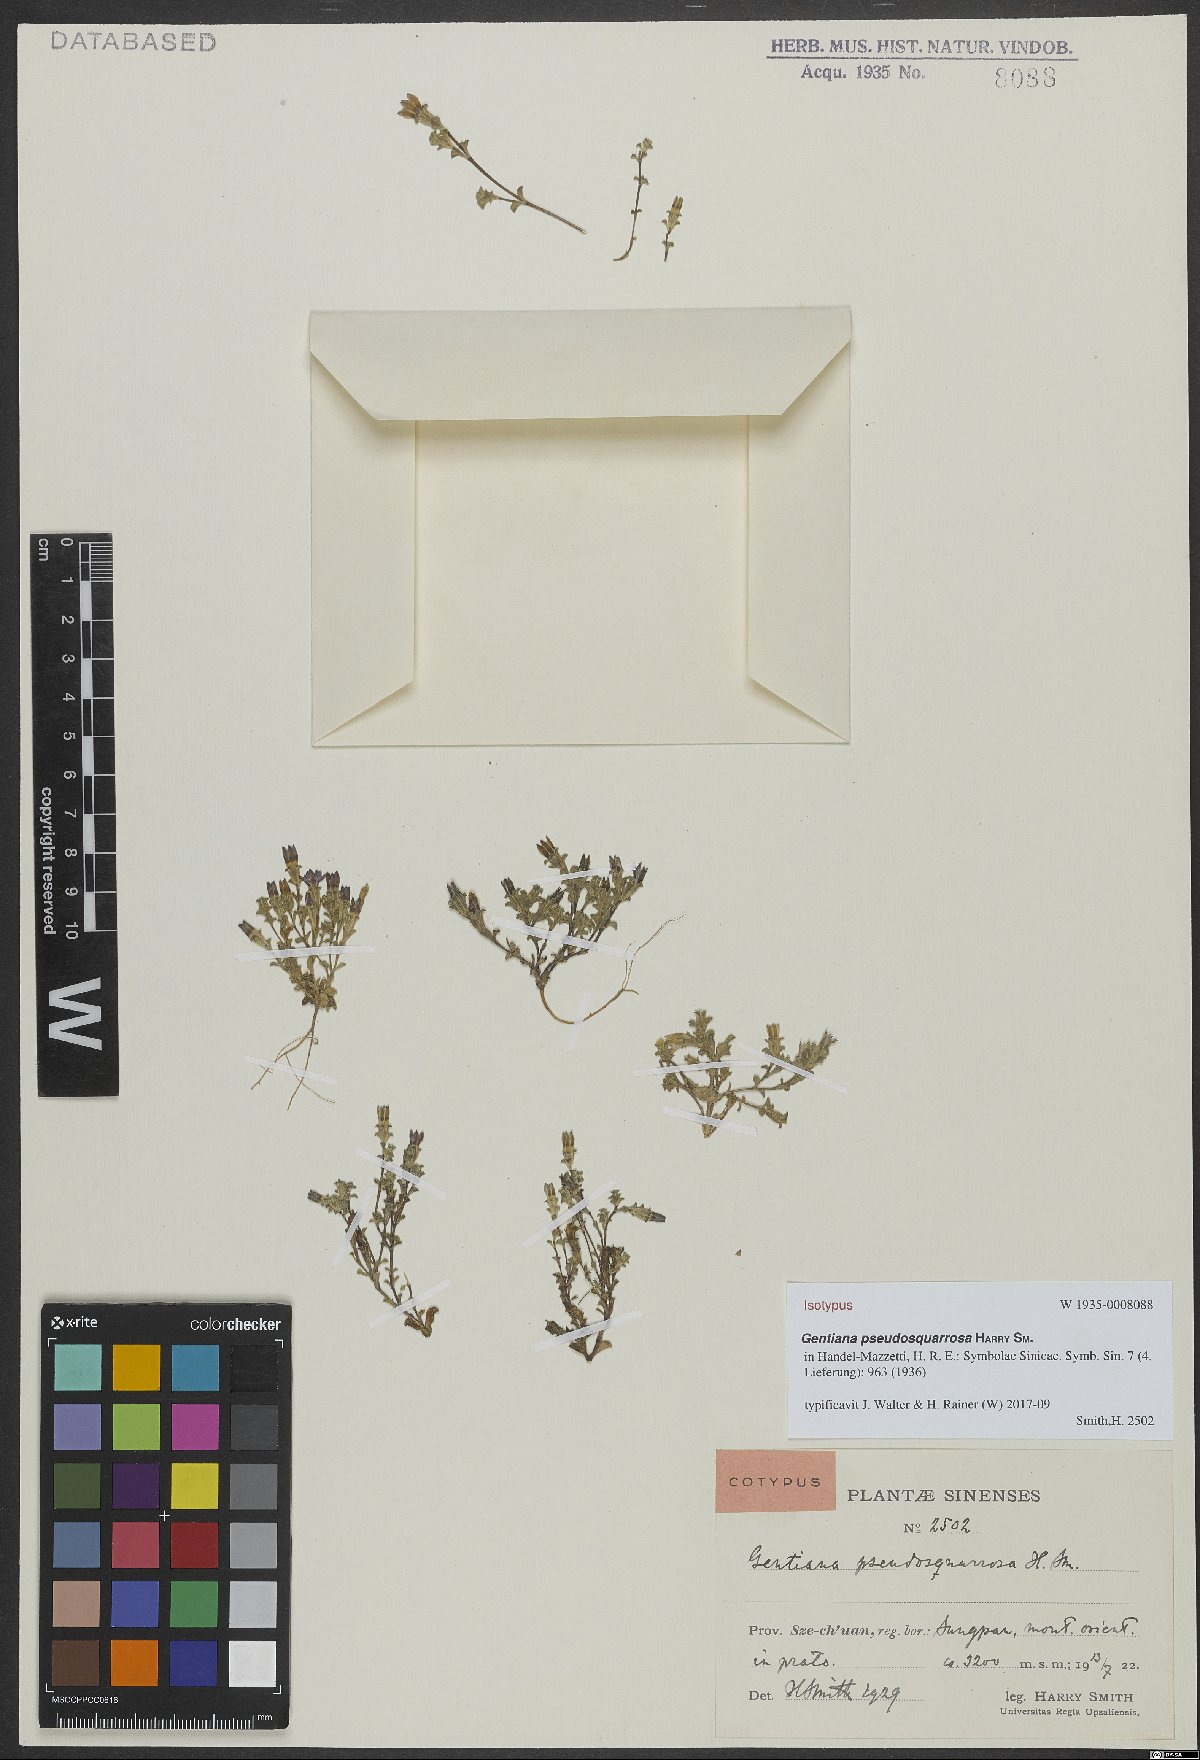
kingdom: Plantae
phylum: Tracheophyta
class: Magnoliopsida
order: Gentianales
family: Gentianaceae
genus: Gentiana
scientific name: Gentiana pseudosquarrosa
